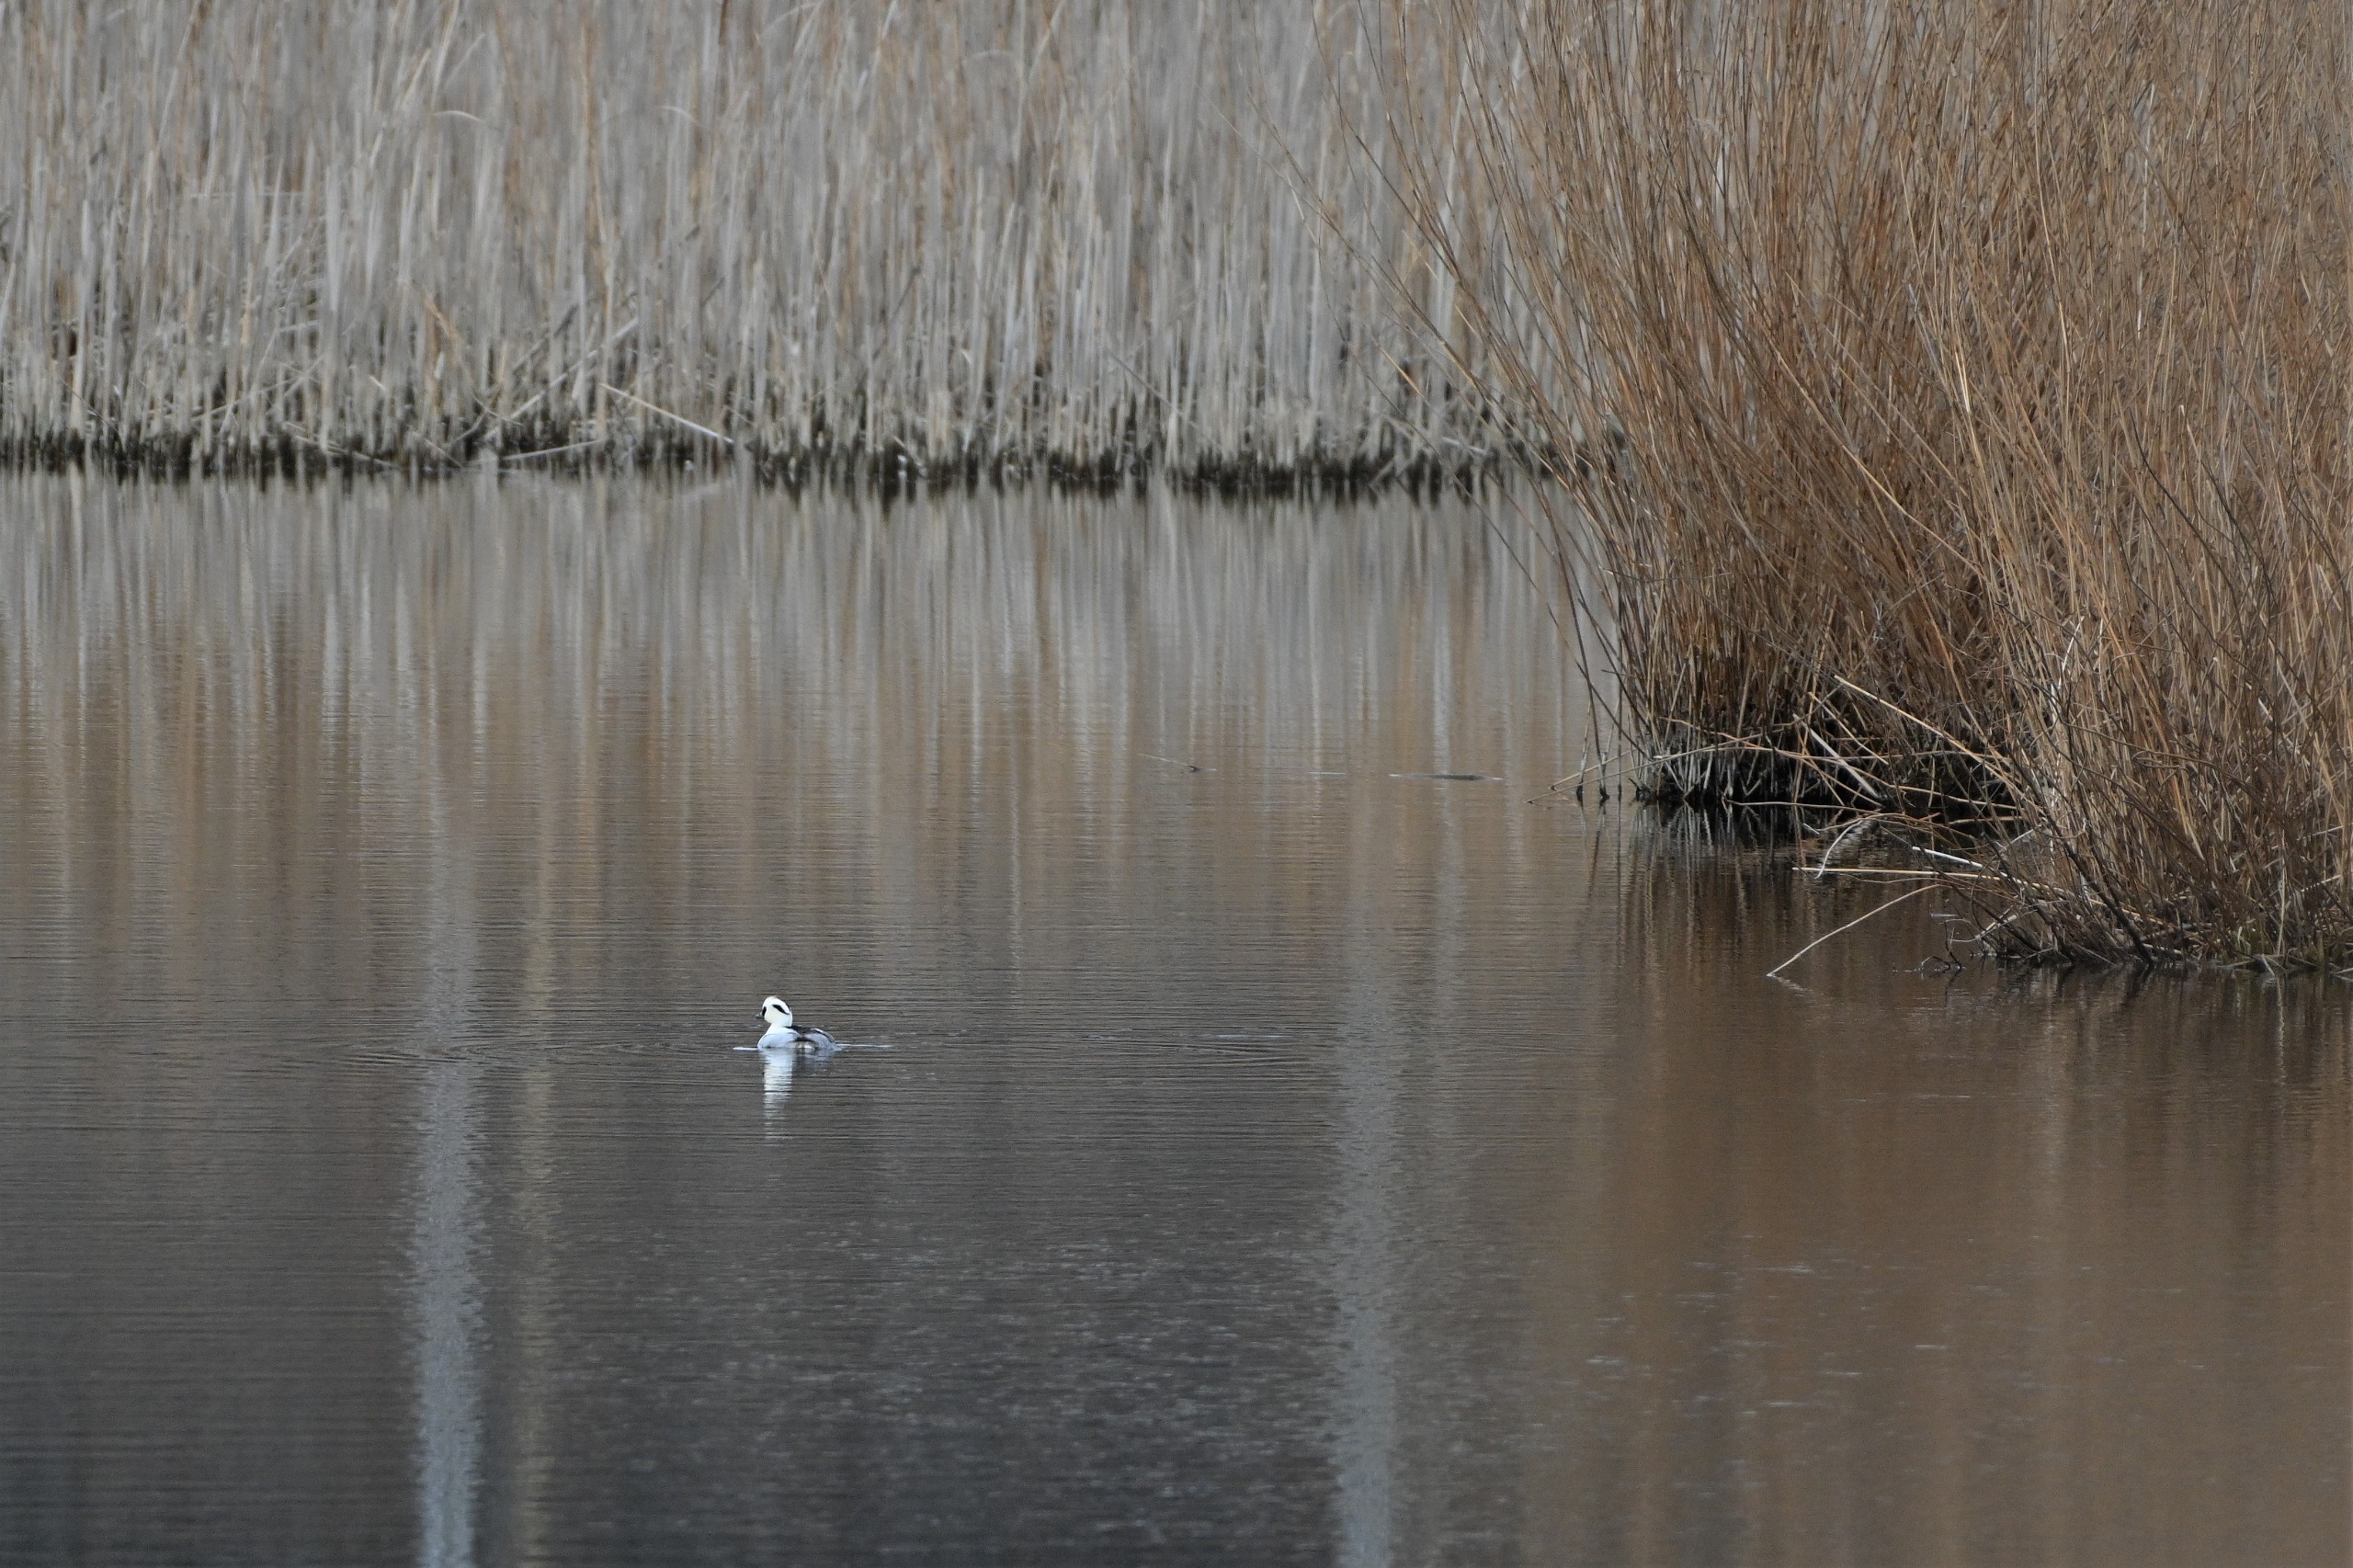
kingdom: Animalia
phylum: Chordata
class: Aves
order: Anseriformes
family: Anatidae
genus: Mergellus
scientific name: Mergellus albellus
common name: Lille skallesluger
